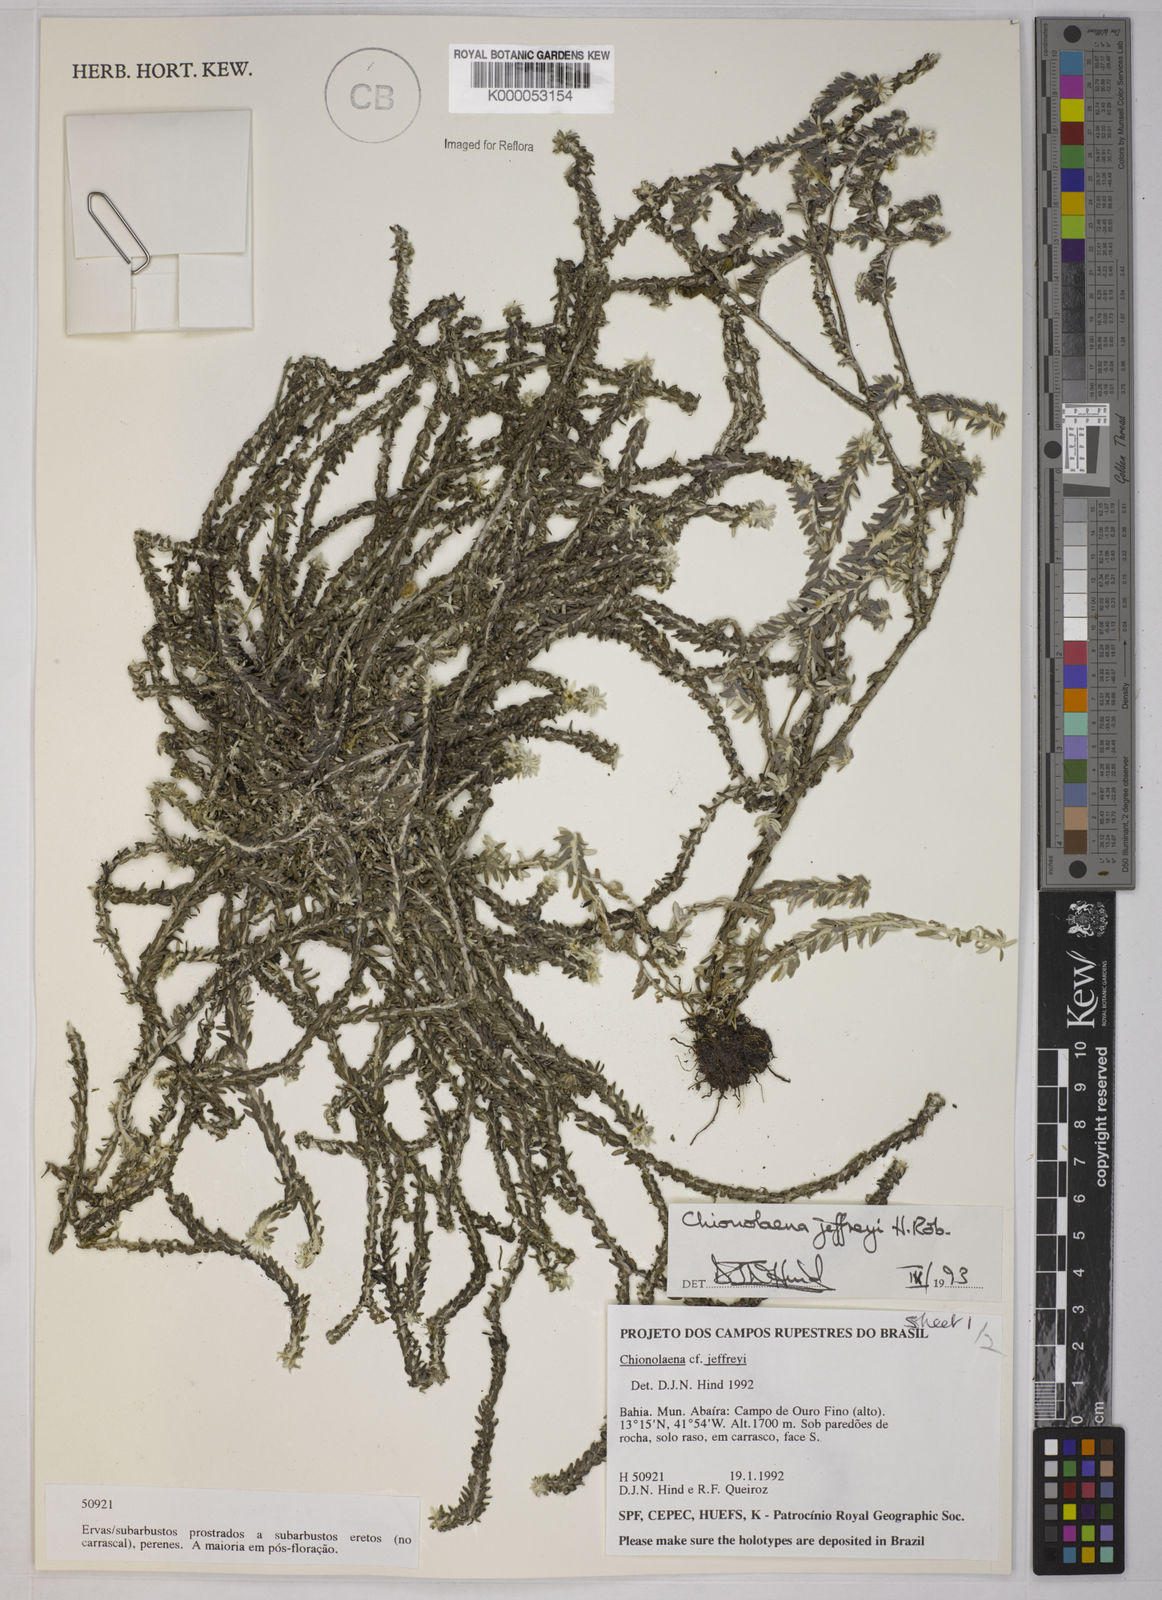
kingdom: Plantae
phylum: Tracheophyta
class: Magnoliopsida
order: Asterales
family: Asteraceae
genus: Chionolaena
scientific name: Chionolaena jeffreyi
